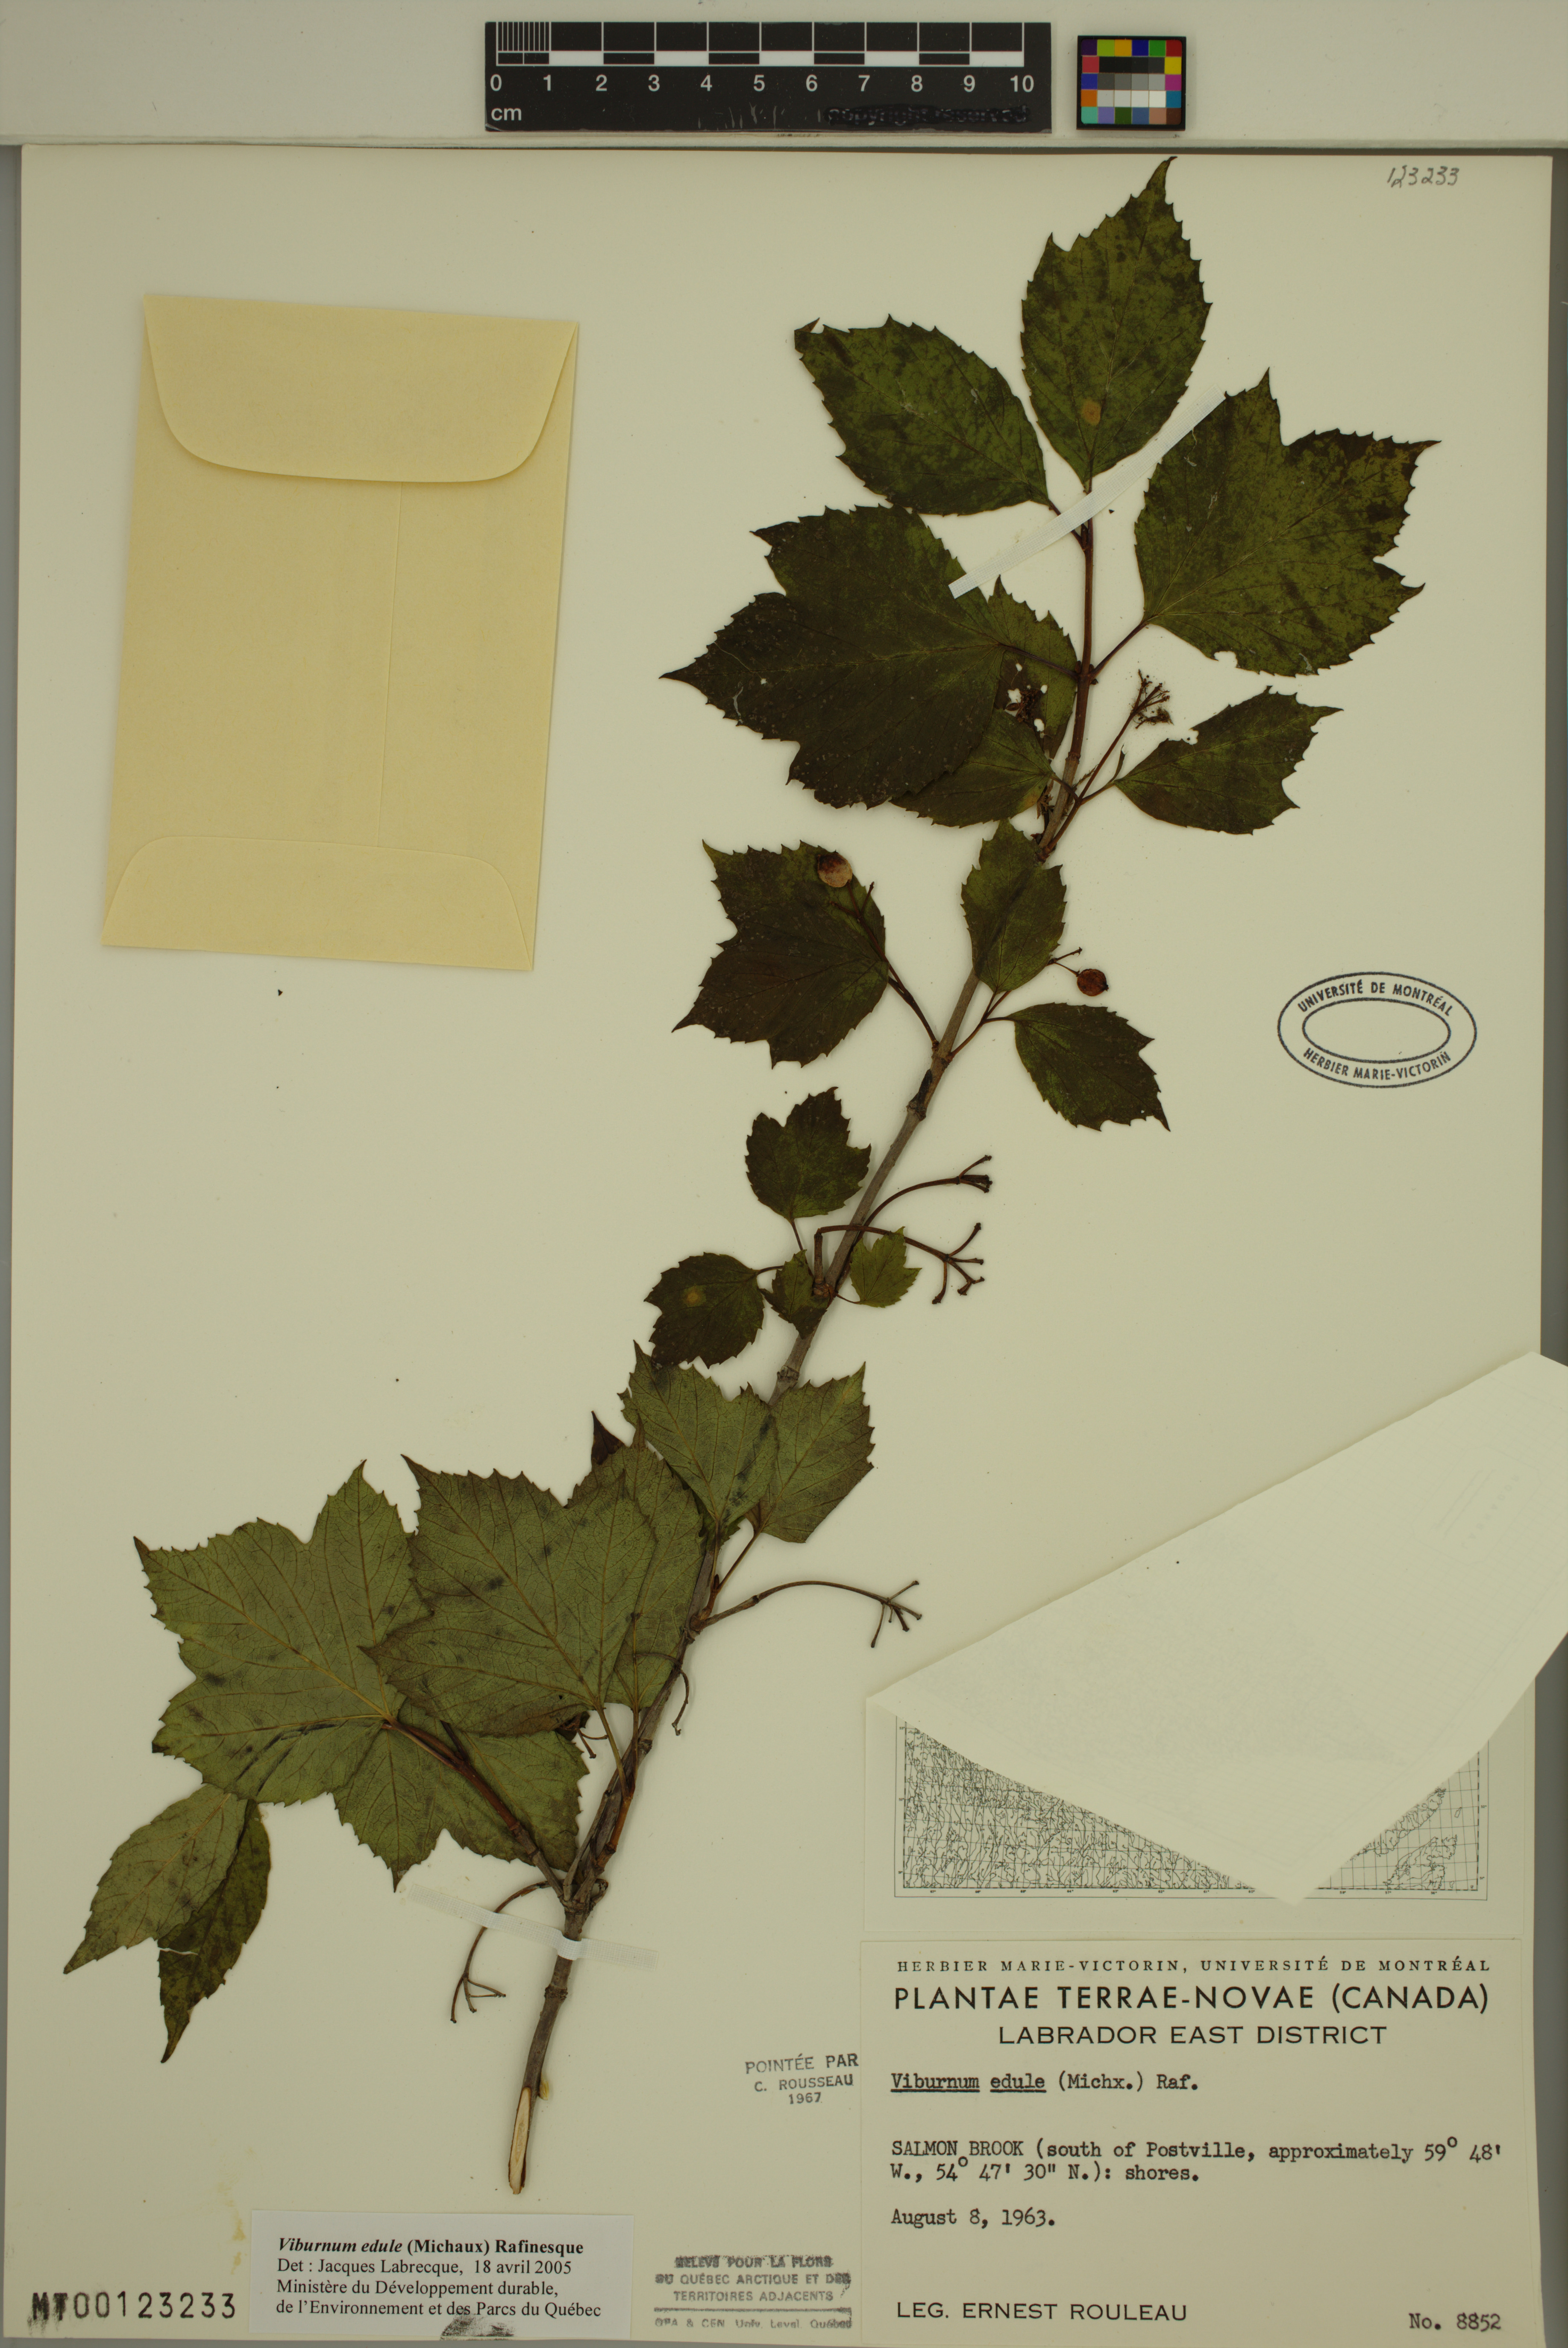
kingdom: Plantae
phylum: Tracheophyta
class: Magnoliopsida
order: Dipsacales
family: Viburnaceae
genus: Viburnum
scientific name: Viburnum edule
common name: Mooseberry
